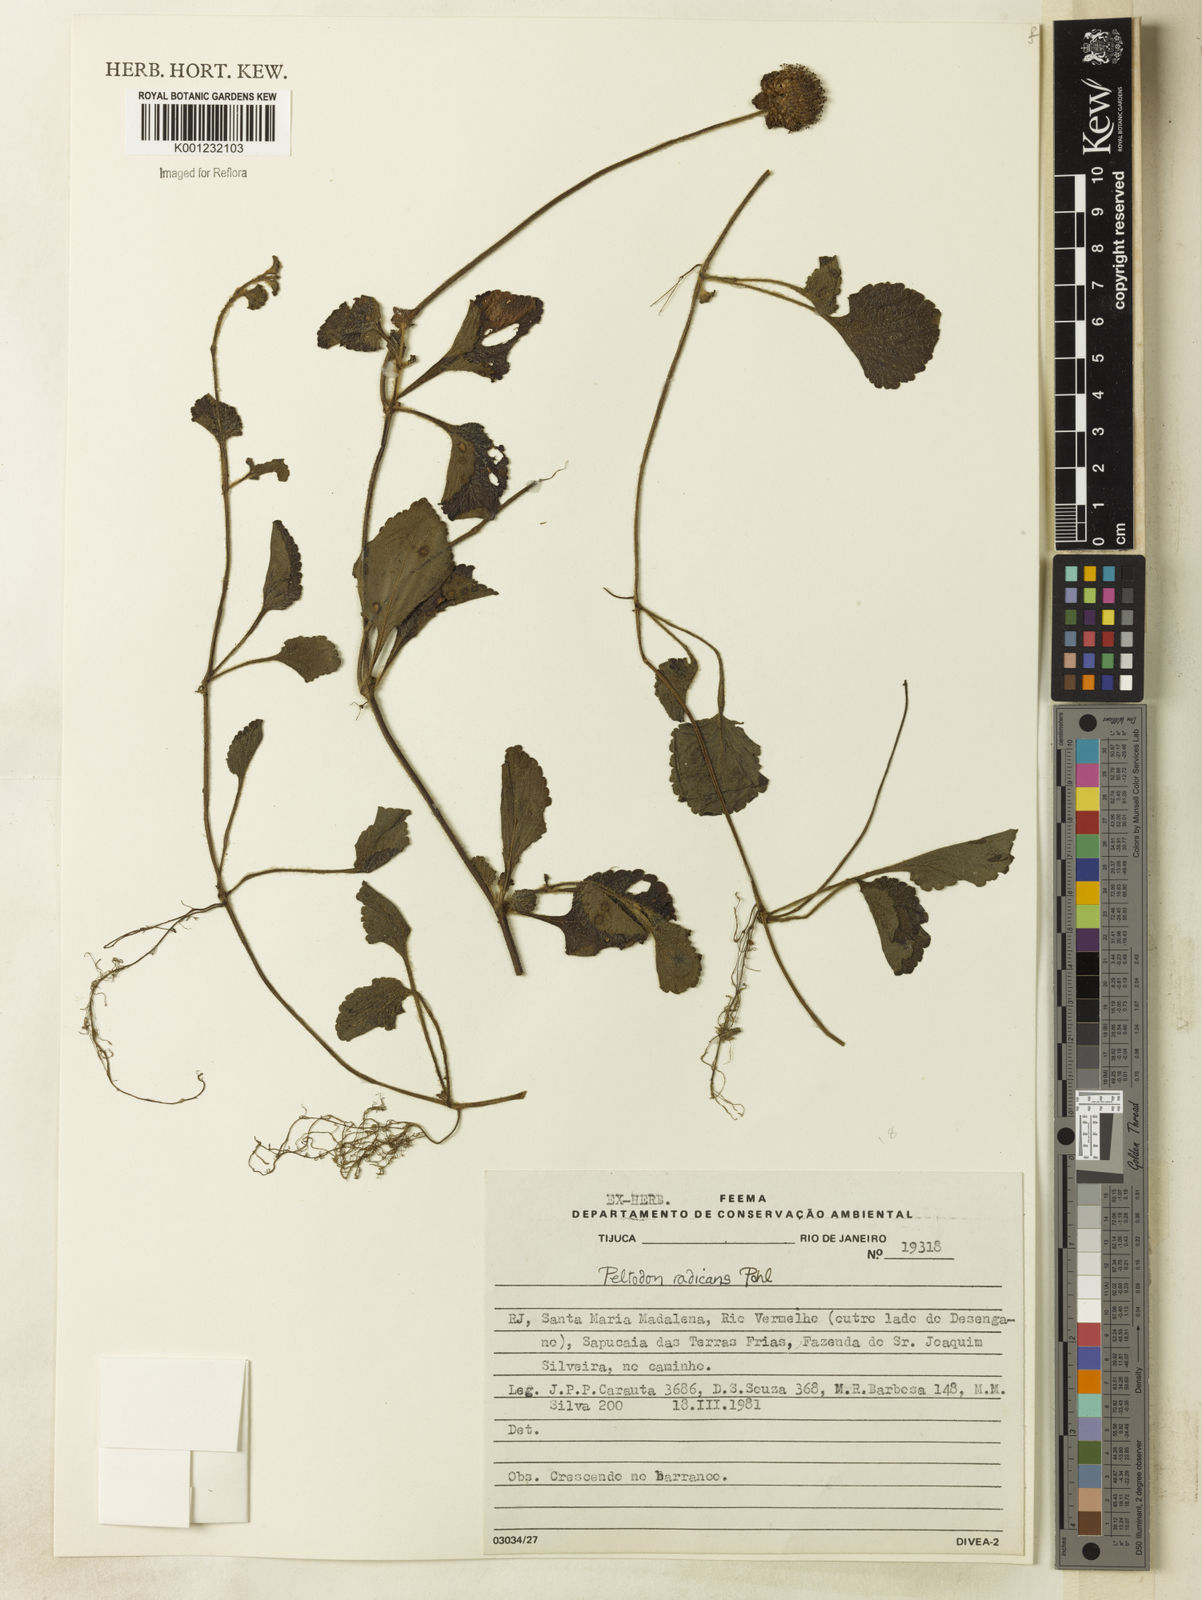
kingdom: Plantae
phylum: Tracheophyta
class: Magnoliopsida
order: Lamiales
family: Lamiaceae
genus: Hyptis
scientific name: Hyptis radicans
